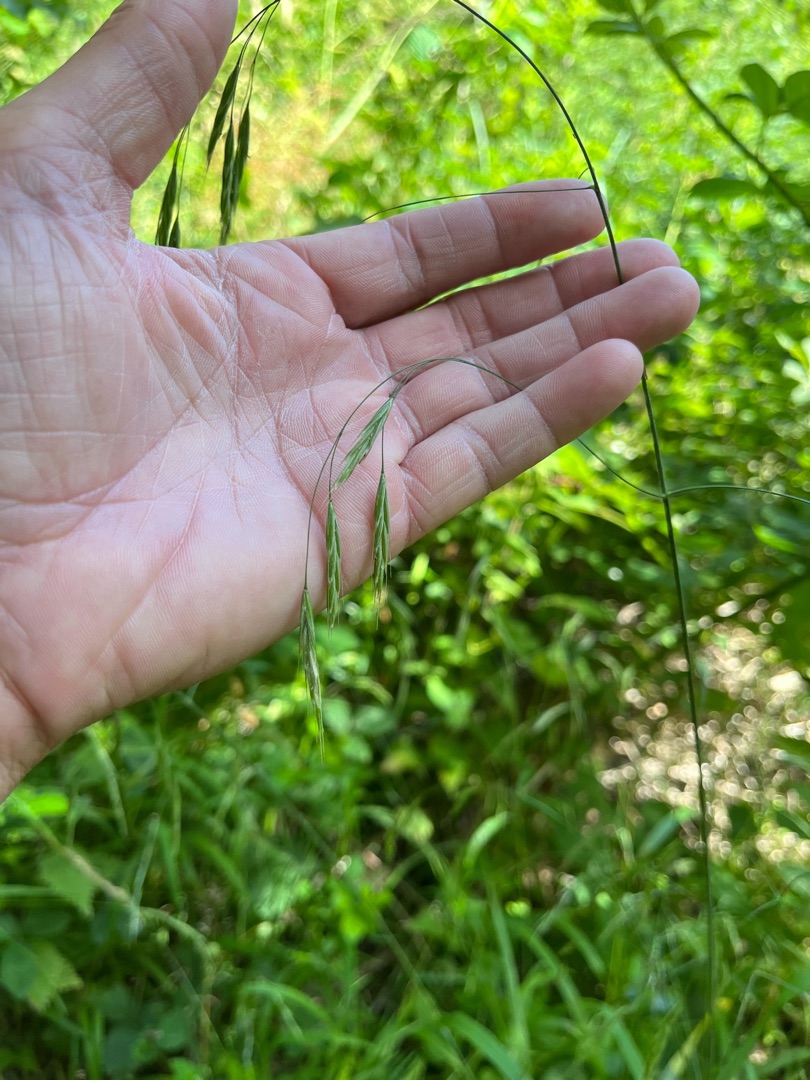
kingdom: Plantae
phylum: Tracheophyta
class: Liliopsida
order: Poales
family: Poaceae
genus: Bromus
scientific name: Bromus ramosus
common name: Sildig skov-hejre
